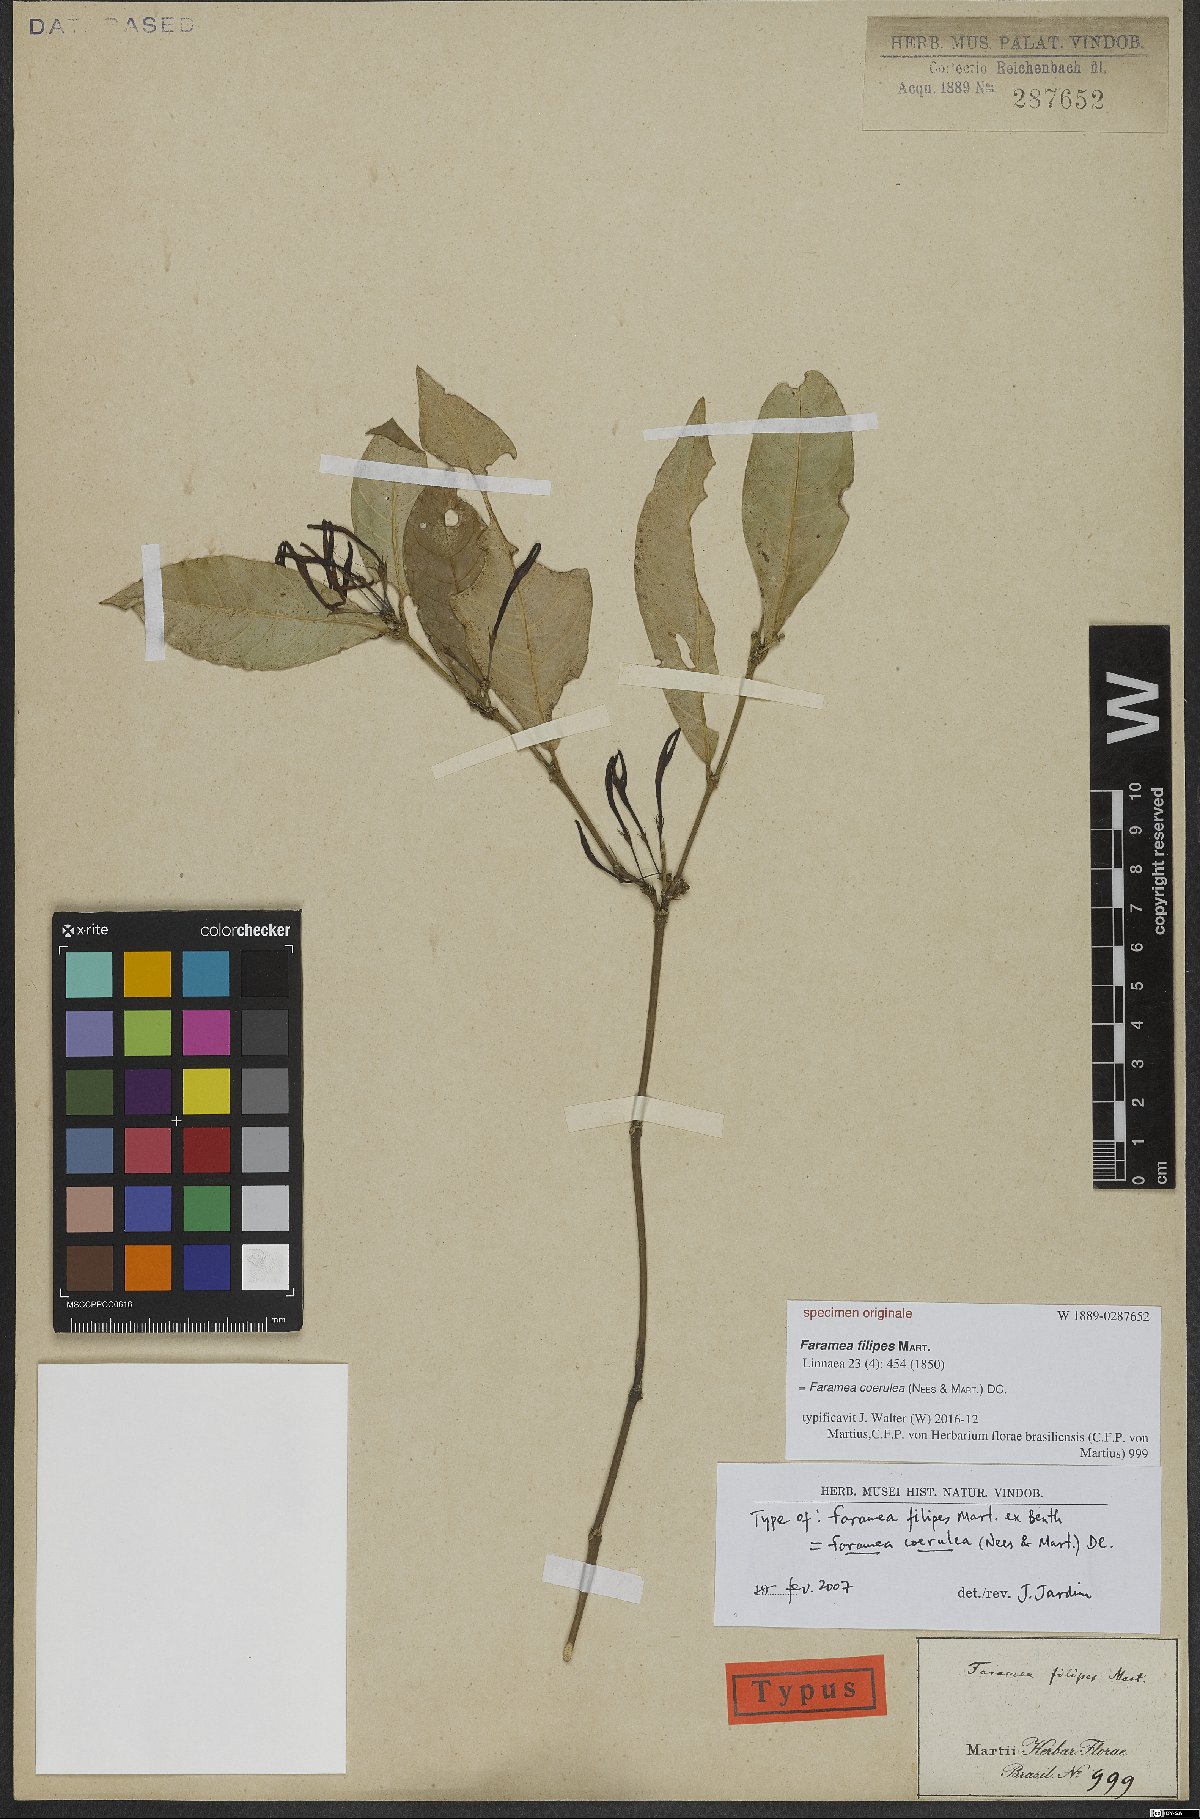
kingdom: Plantae
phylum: Tracheophyta
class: Magnoliopsida
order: Gentianales
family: Rubiaceae
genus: Faramea
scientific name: Faramea coerulea
